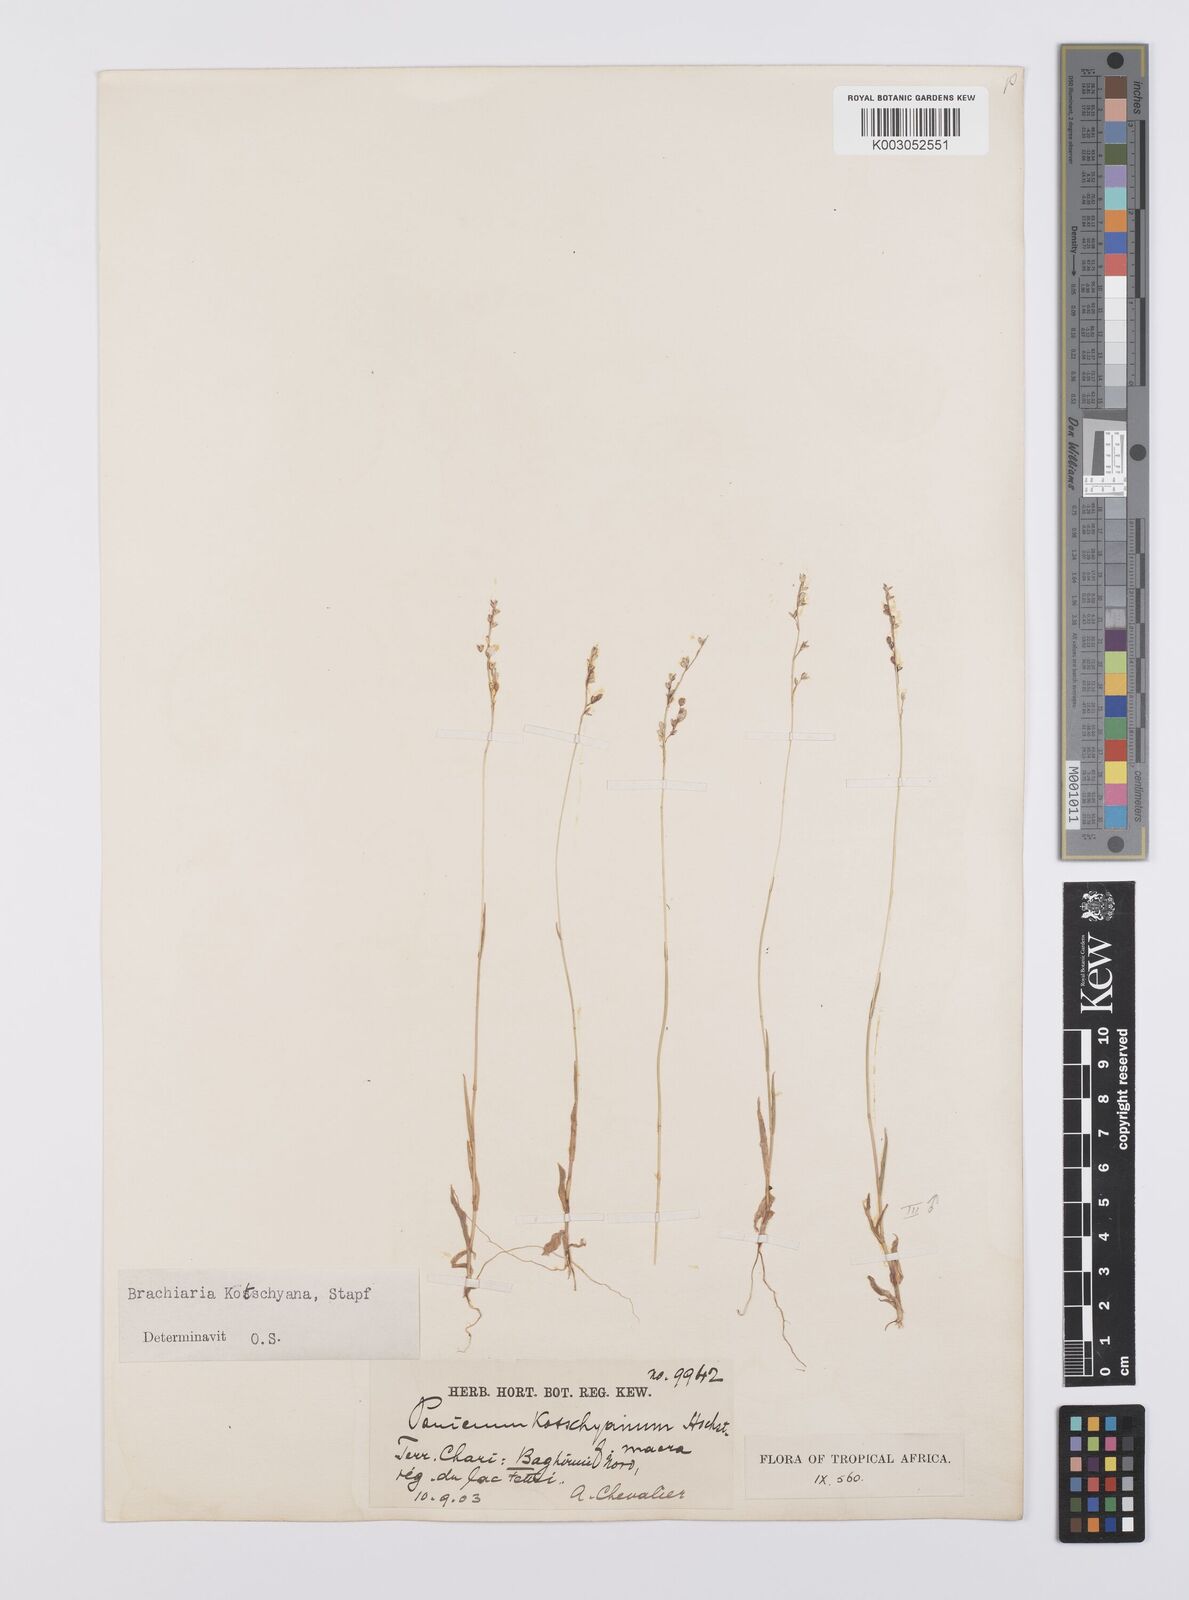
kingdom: Plantae
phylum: Tracheophyta
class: Liliopsida
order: Poales
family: Poaceae
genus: Urochloa
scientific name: Urochloa comata
